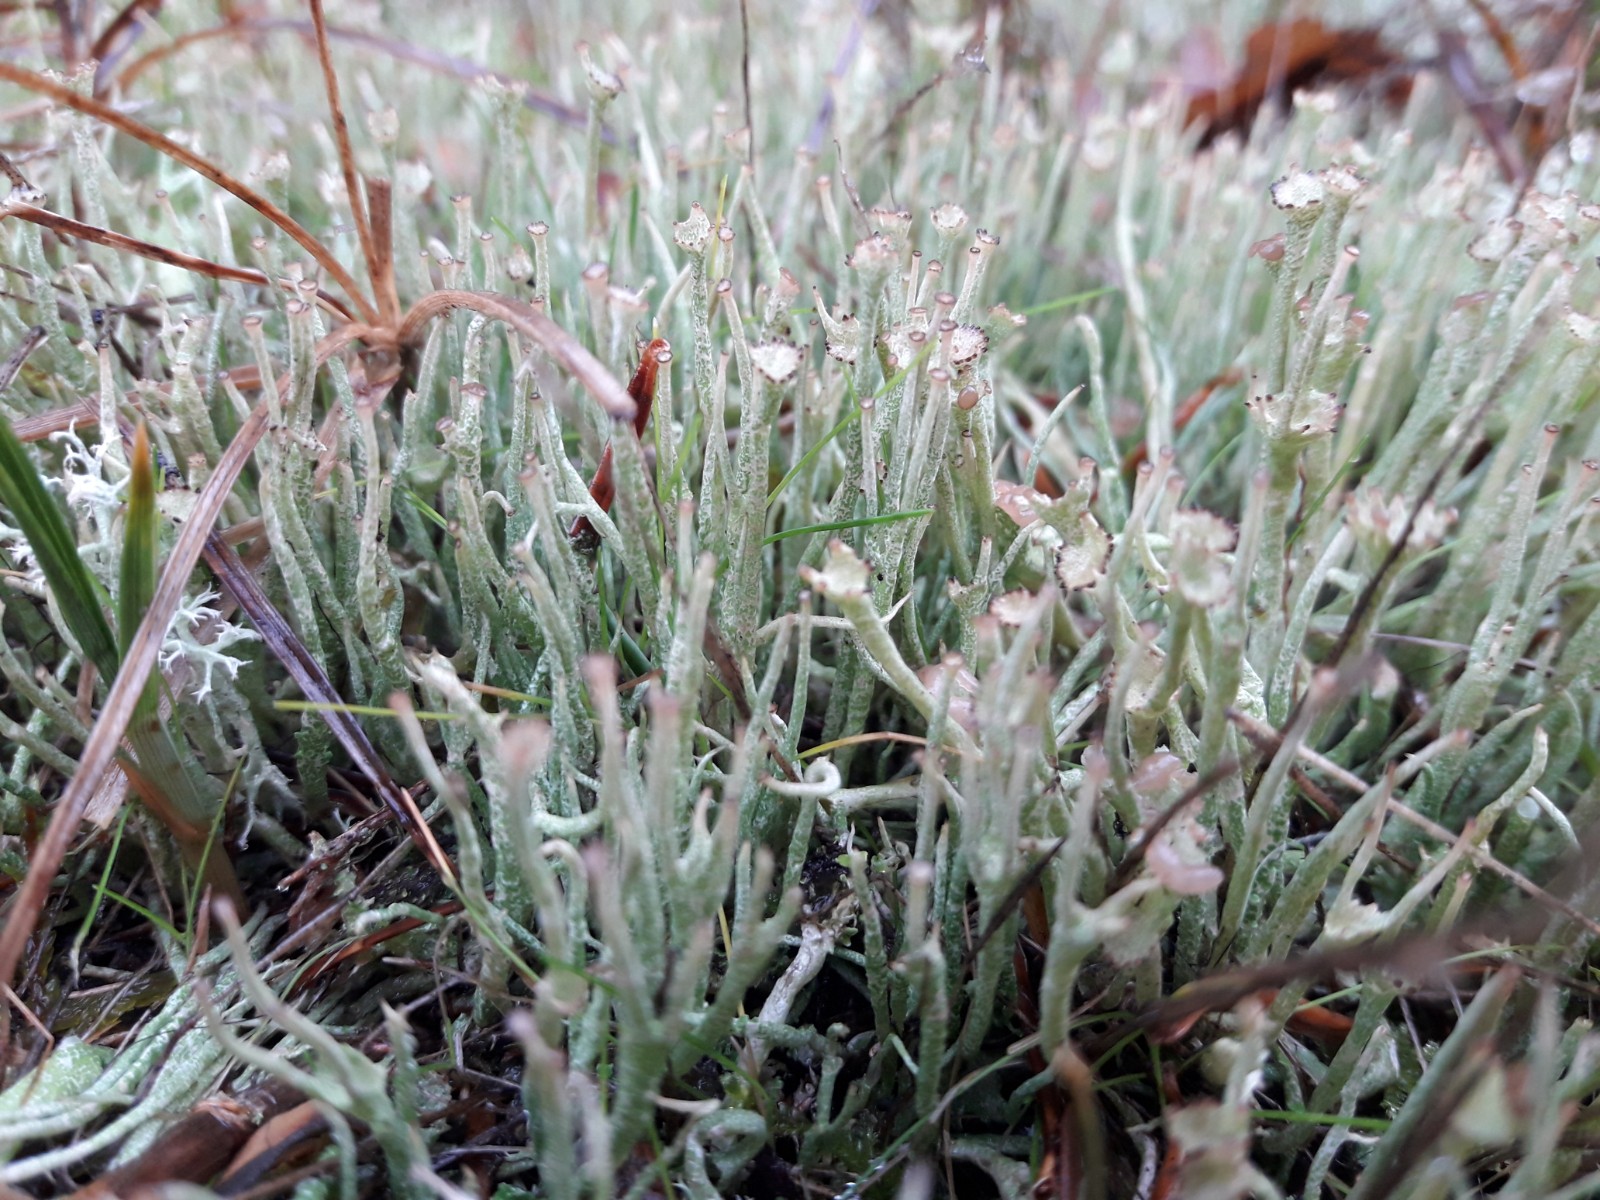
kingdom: Fungi
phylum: Ascomycota
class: Lecanoromycetes
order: Lecanorales
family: Cladoniaceae
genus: Cladonia
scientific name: Cladonia gracilis
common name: slank bægerlav
